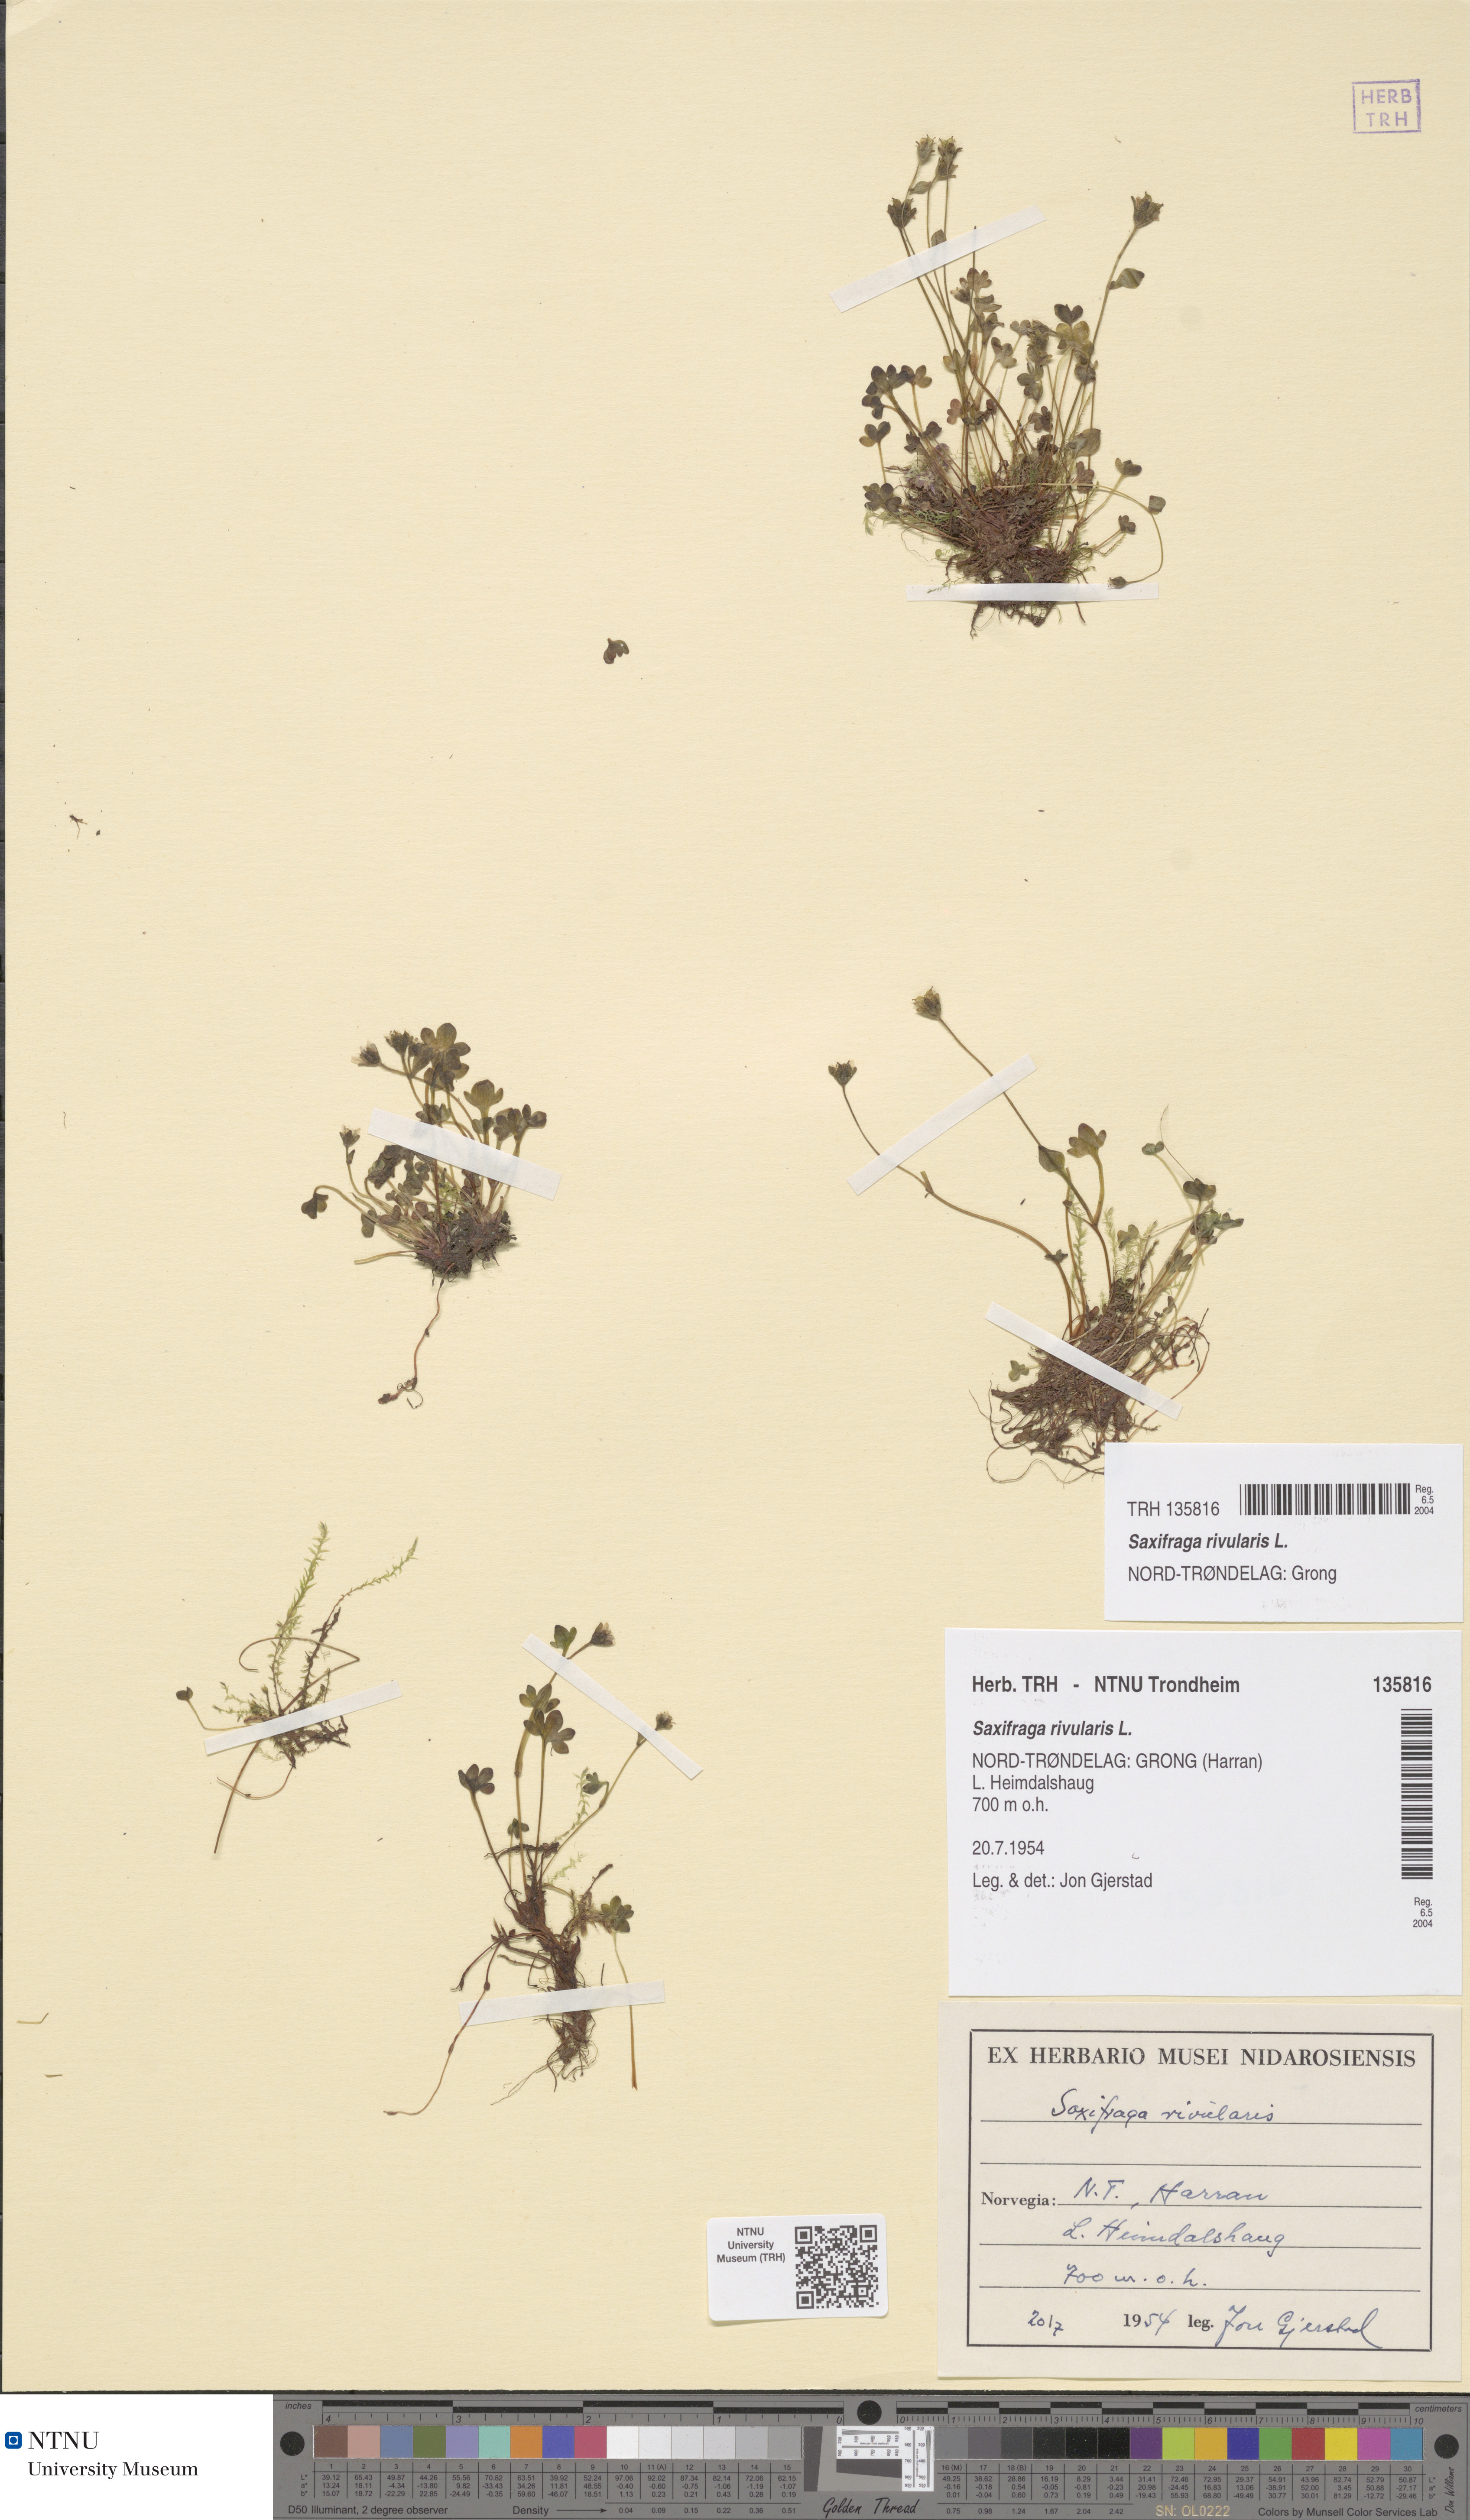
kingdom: Plantae
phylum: Tracheophyta
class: Magnoliopsida
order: Saxifragales
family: Saxifragaceae
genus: Saxifraga
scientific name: Saxifraga rivularis
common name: Highland saxifrage
